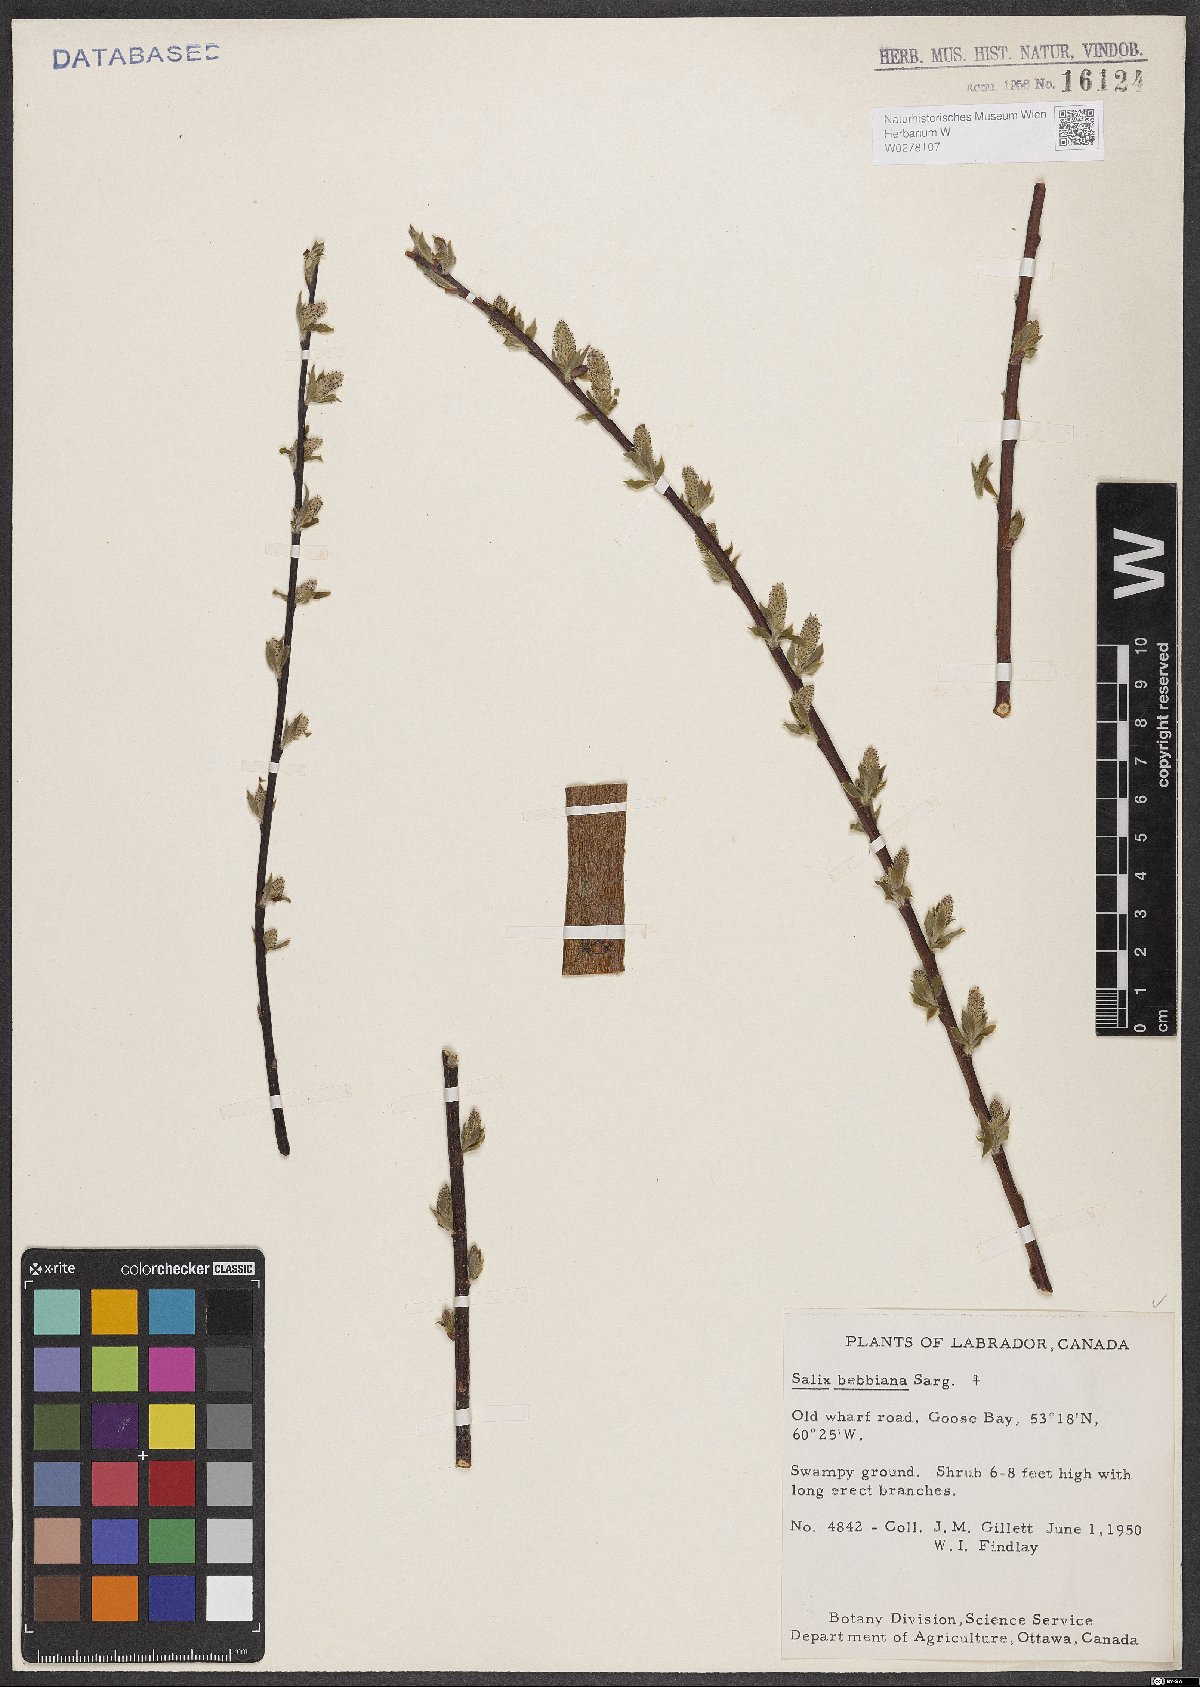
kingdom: Plantae
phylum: Tracheophyta
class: Magnoliopsida
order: Malpighiales
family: Salicaceae
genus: Salix
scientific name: Salix bebbiana
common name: Bebb's willow
